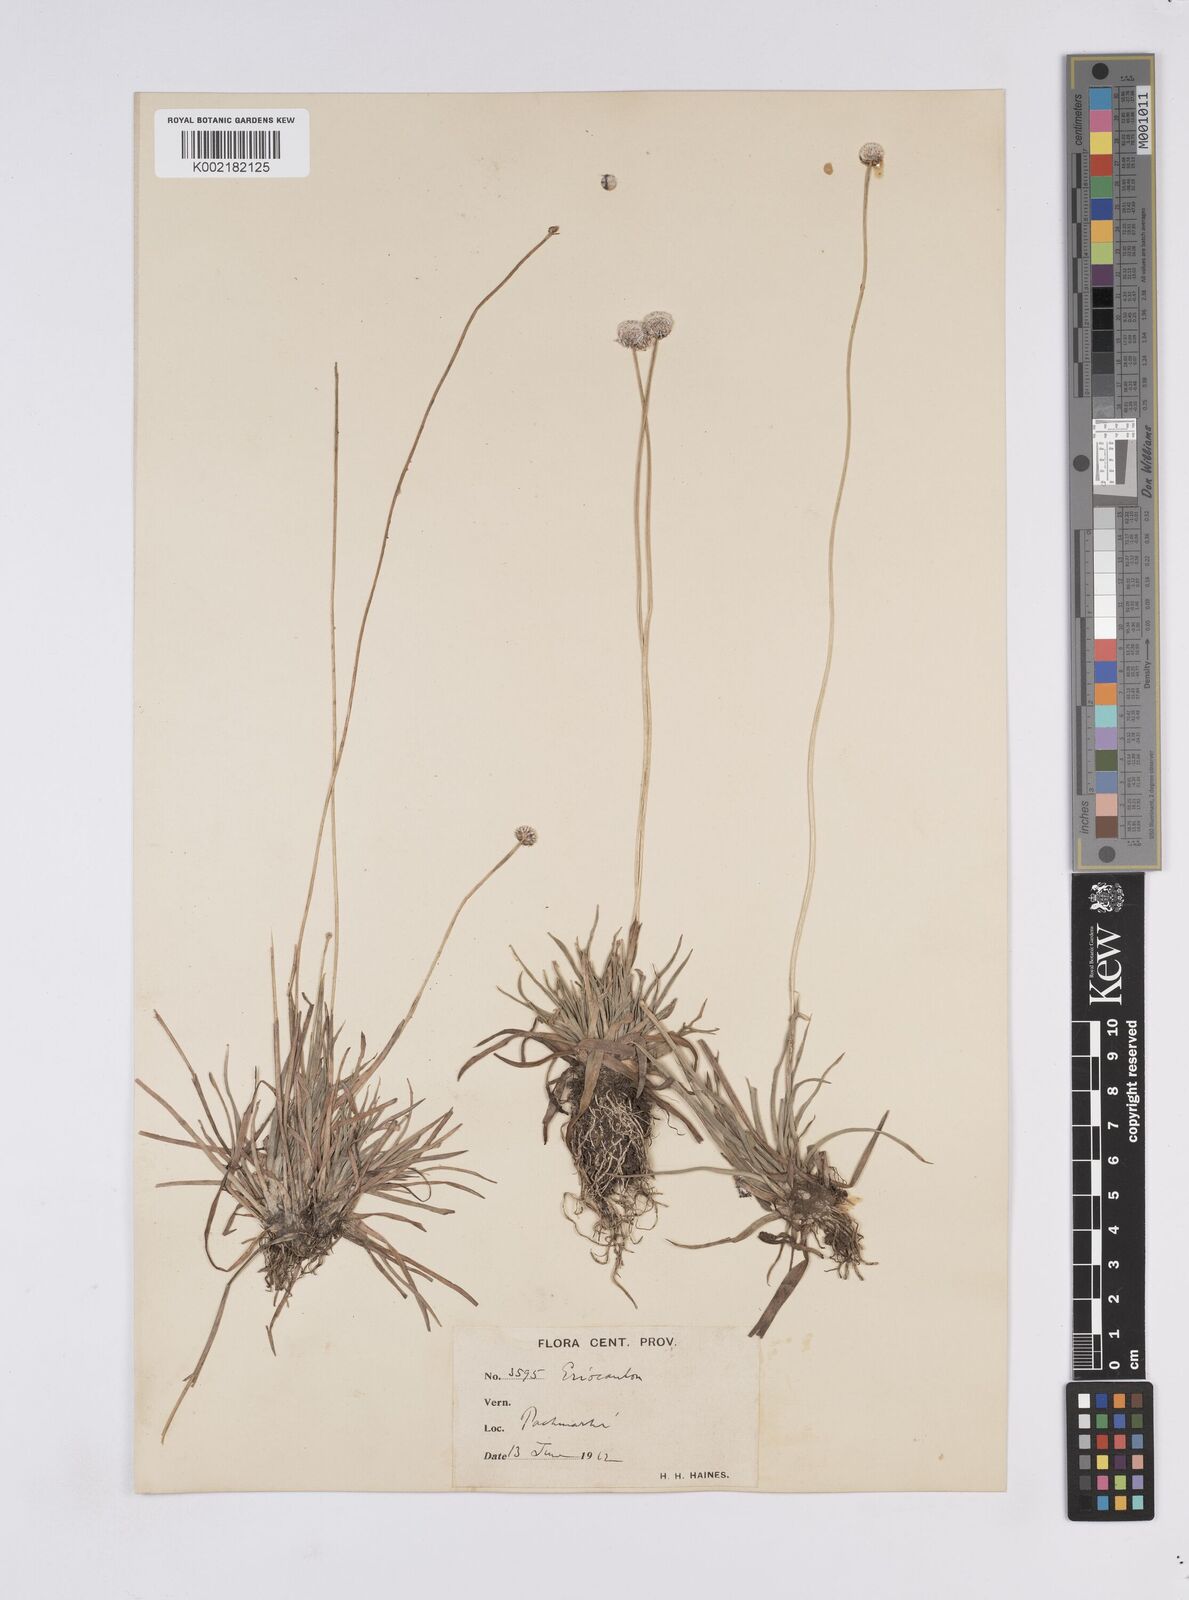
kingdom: Plantae
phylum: Tracheophyta
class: Liliopsida
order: Poales
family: Eriocaulaceae
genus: Eriocaulon
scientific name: Eriocaulon
